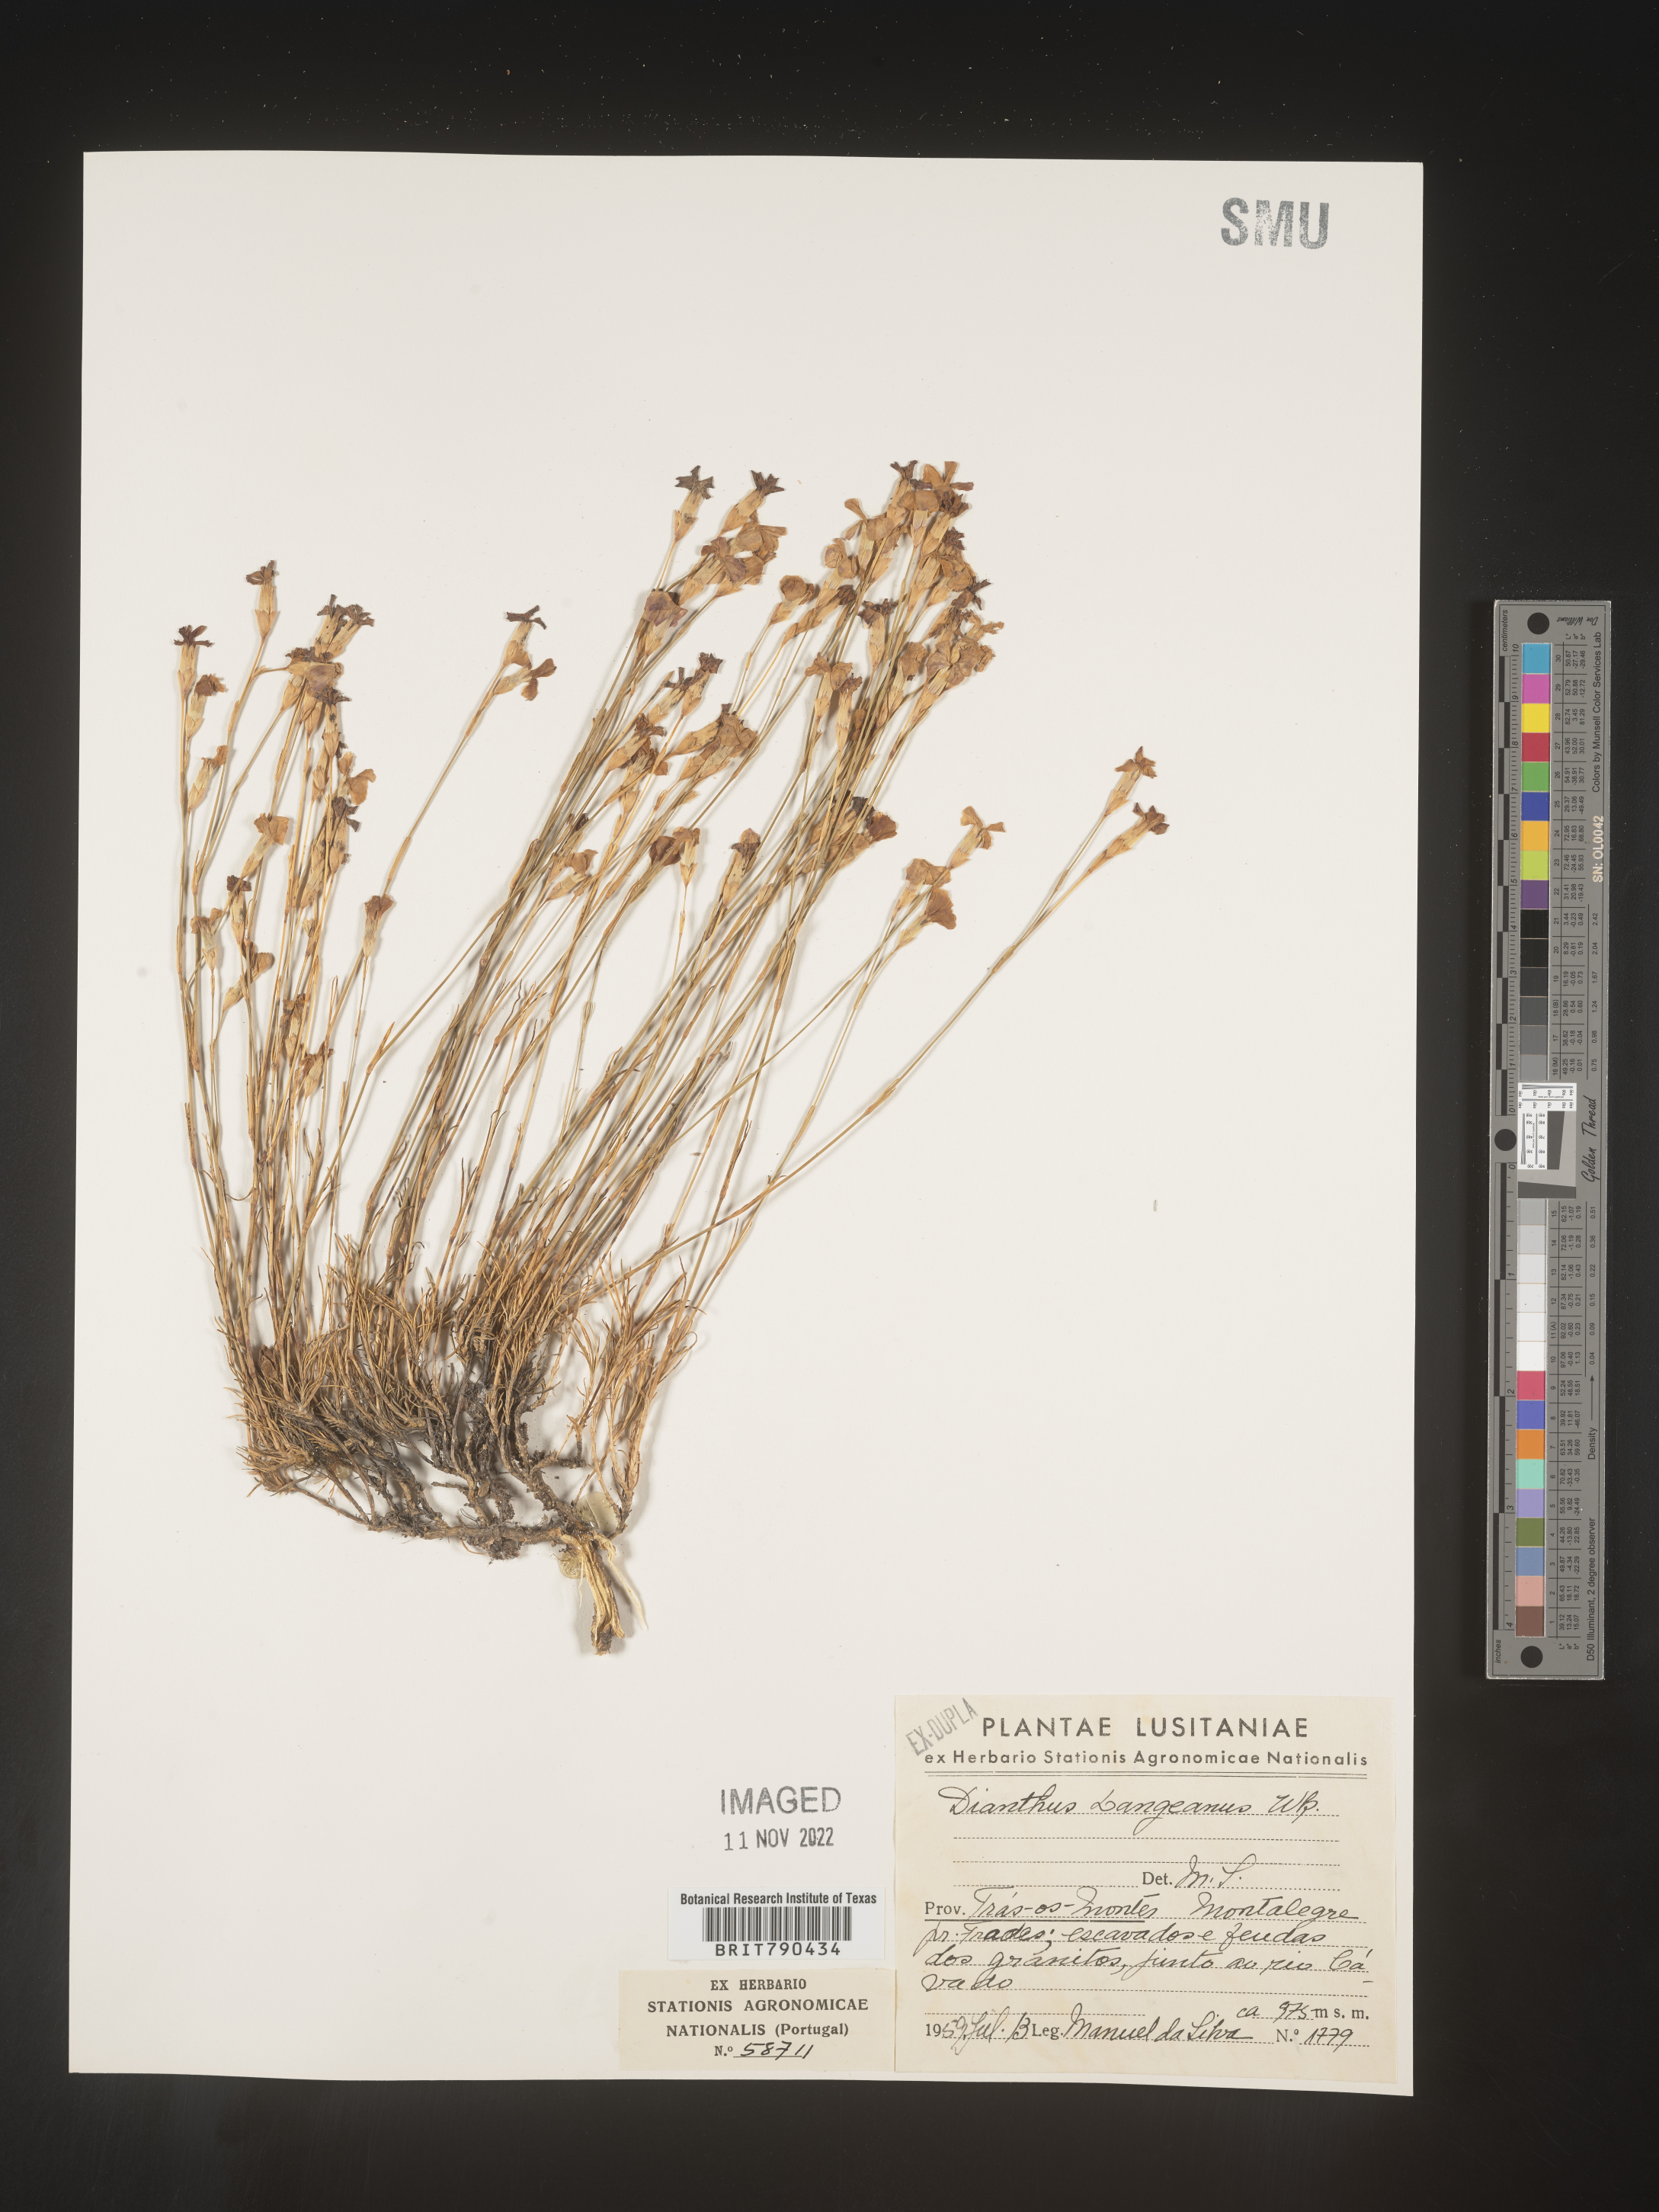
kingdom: Plantae
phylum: Tracheophyta
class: Magnoliopsida
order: Caryophyllales
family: Caryophyllaceae
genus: Dianthus
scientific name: Dianthus
